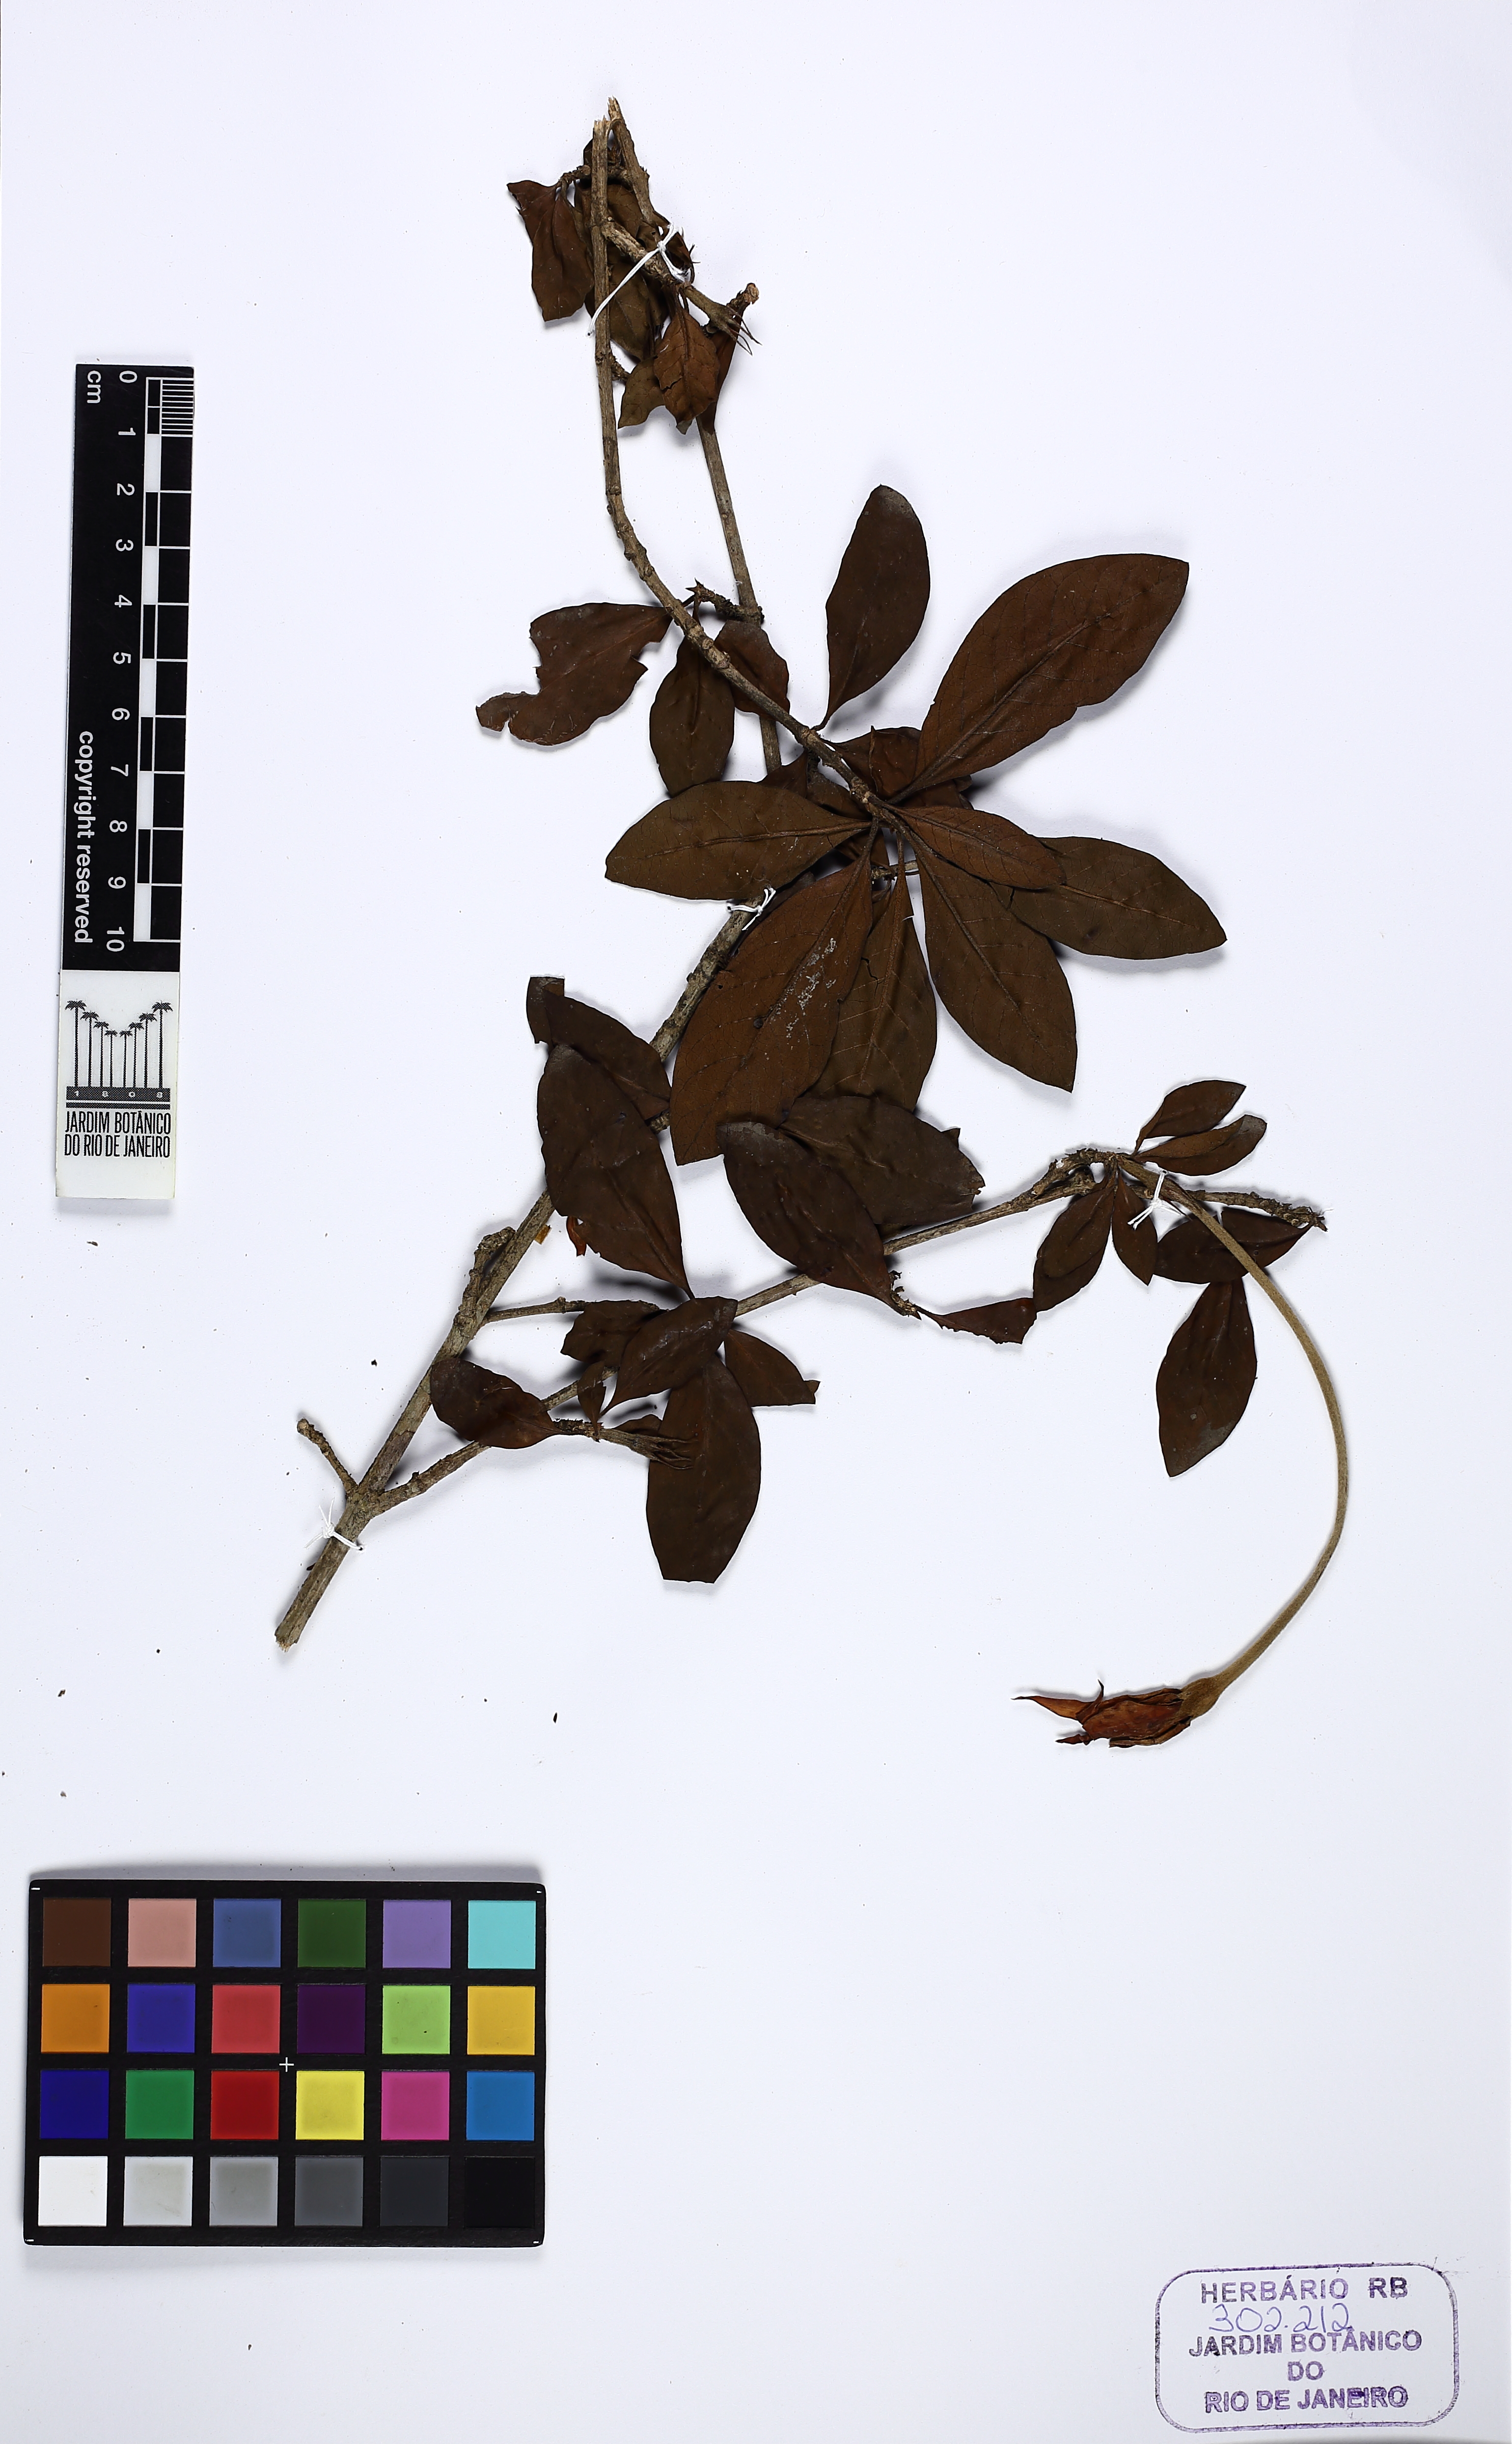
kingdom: Plantae
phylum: Tracheophyta
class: Magnoliopsida
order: Gentianales
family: Rubiaceae
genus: Rosenbergiodendron
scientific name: Rosenbergiodendron formosum
